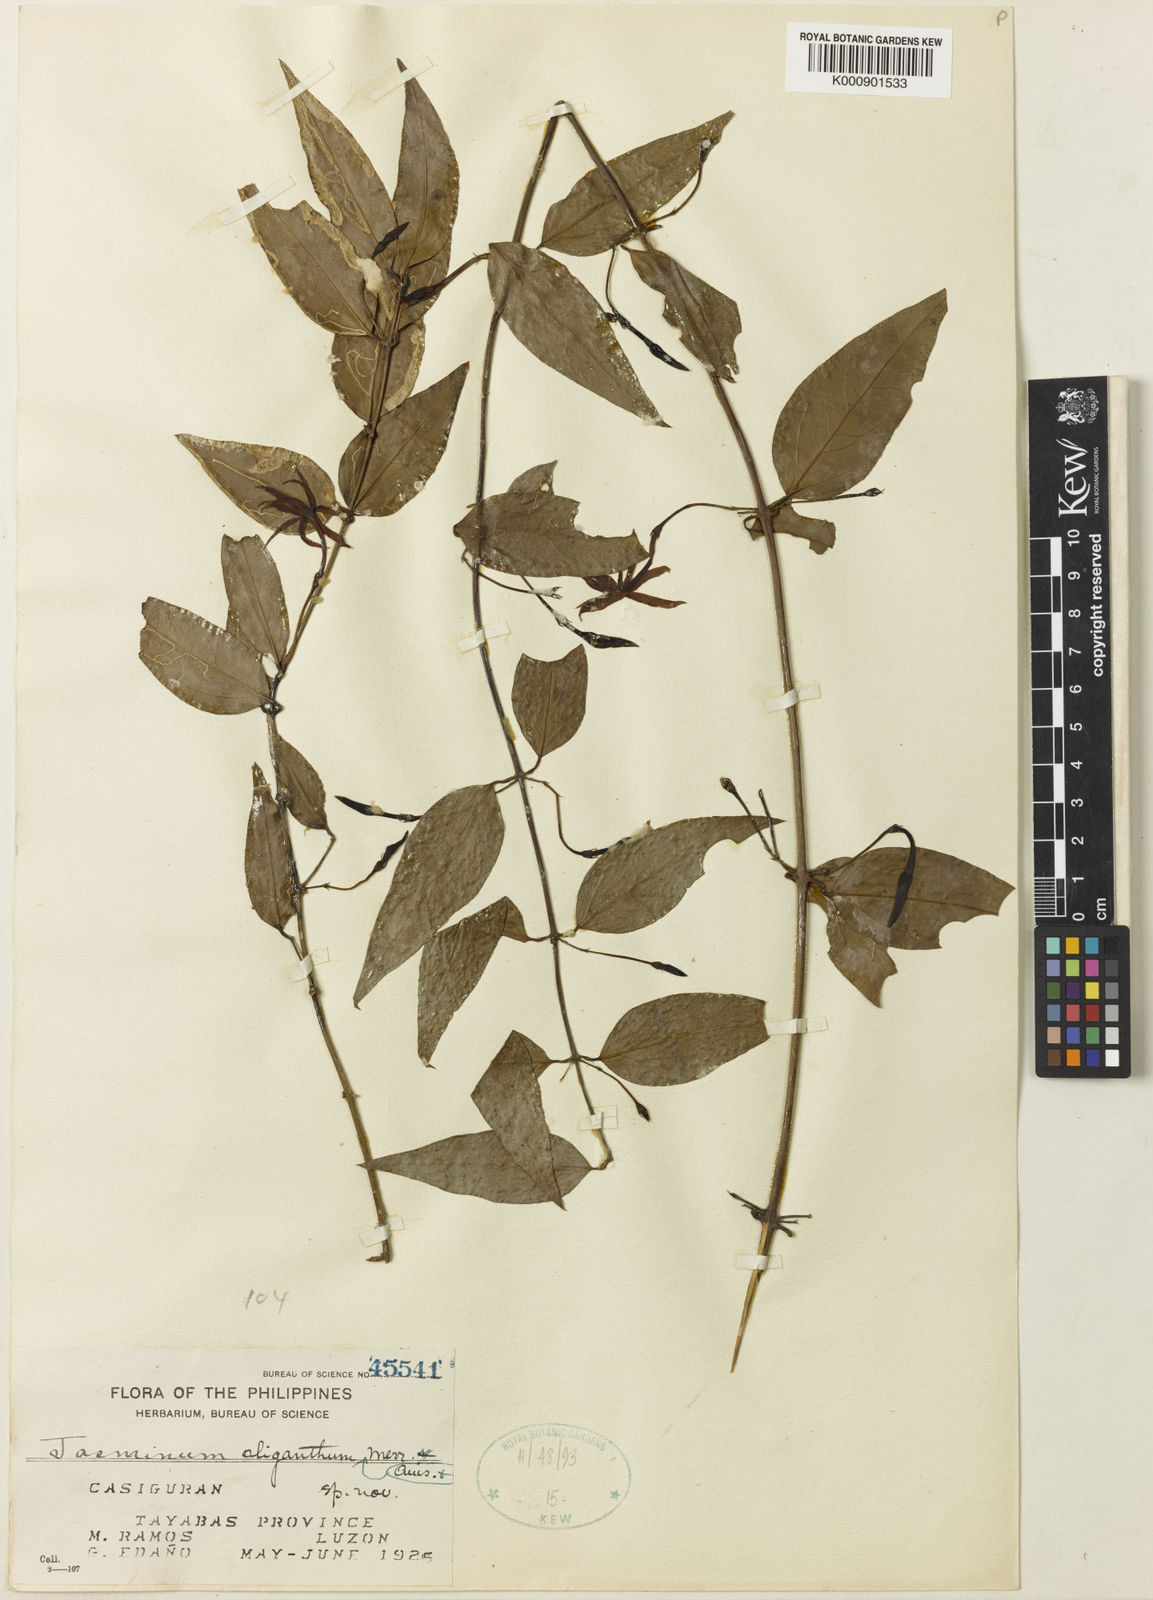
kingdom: Plantae
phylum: Tracheophyta
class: Magnoliopsida
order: Lamiales
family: Oleaceae
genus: Jasminum
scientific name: Jasminum oliganthum
